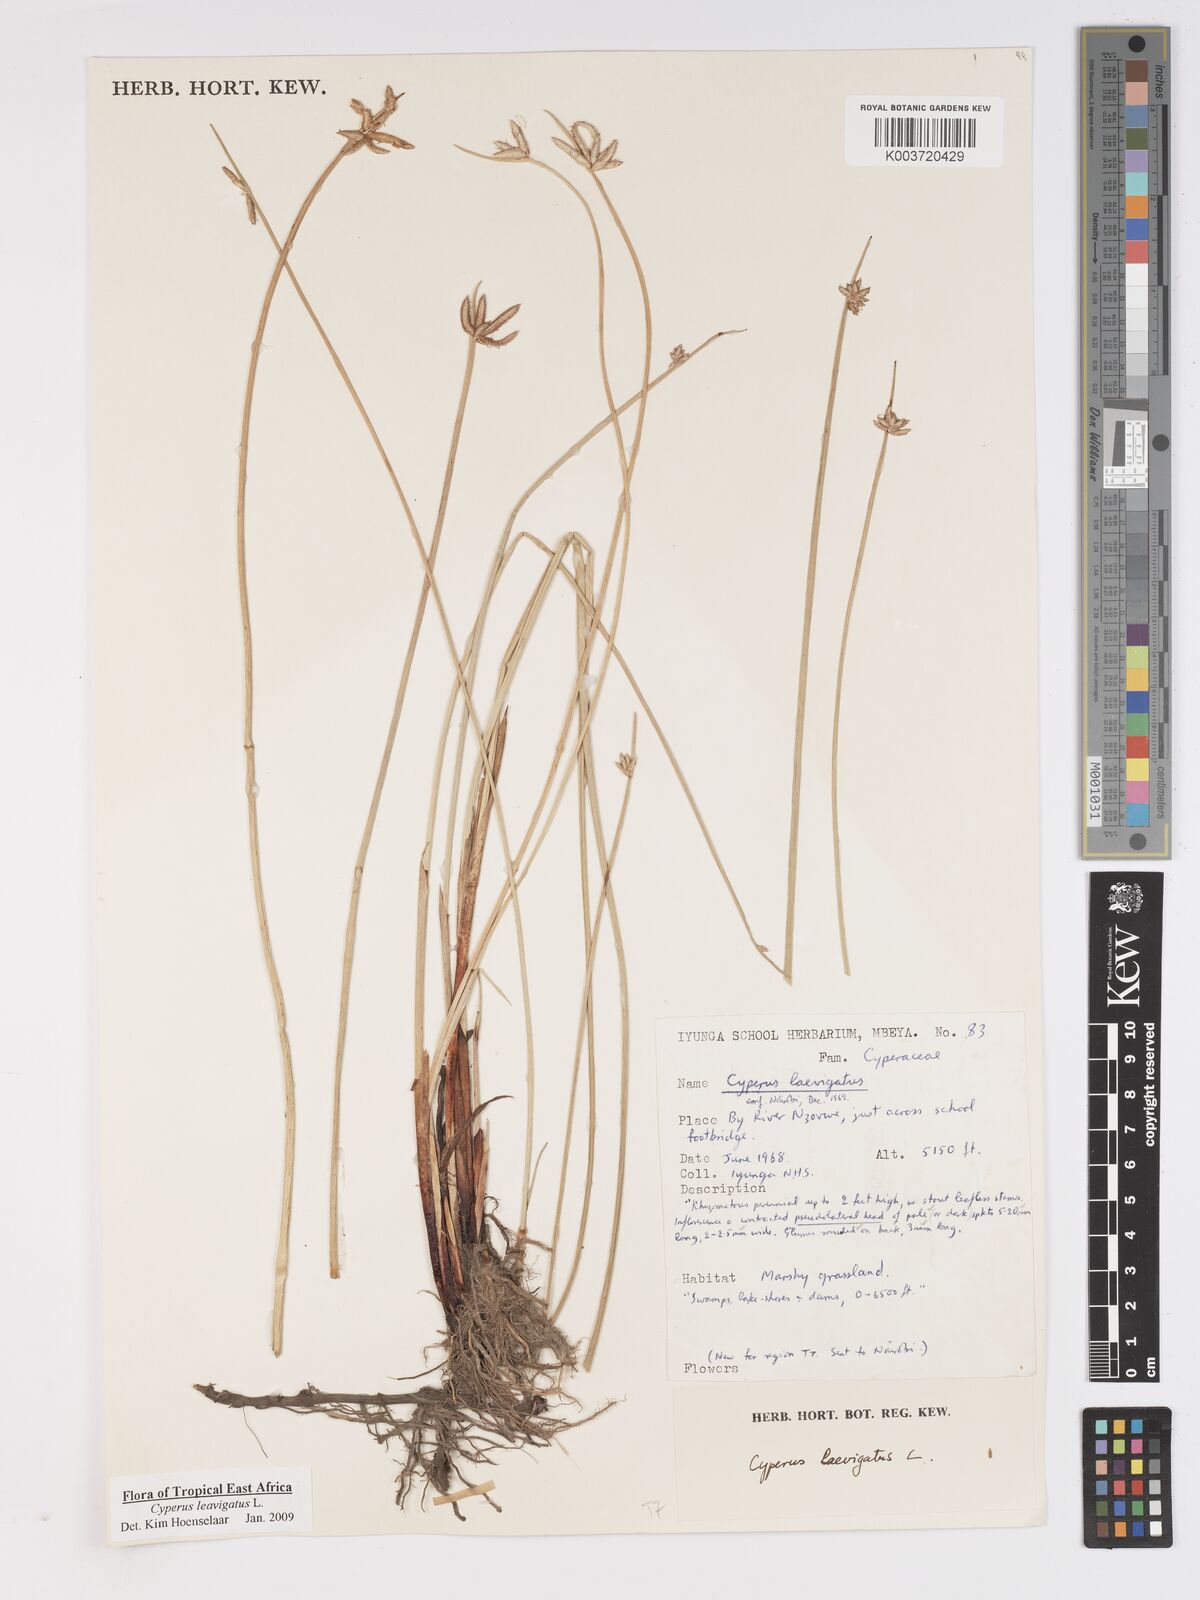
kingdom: Plantae
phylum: Tracheophyta
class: Liliopsida
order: Poales
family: Cyperaceae
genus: Cyperus
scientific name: Cyperus laevigatus
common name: Smooth flat sedge
